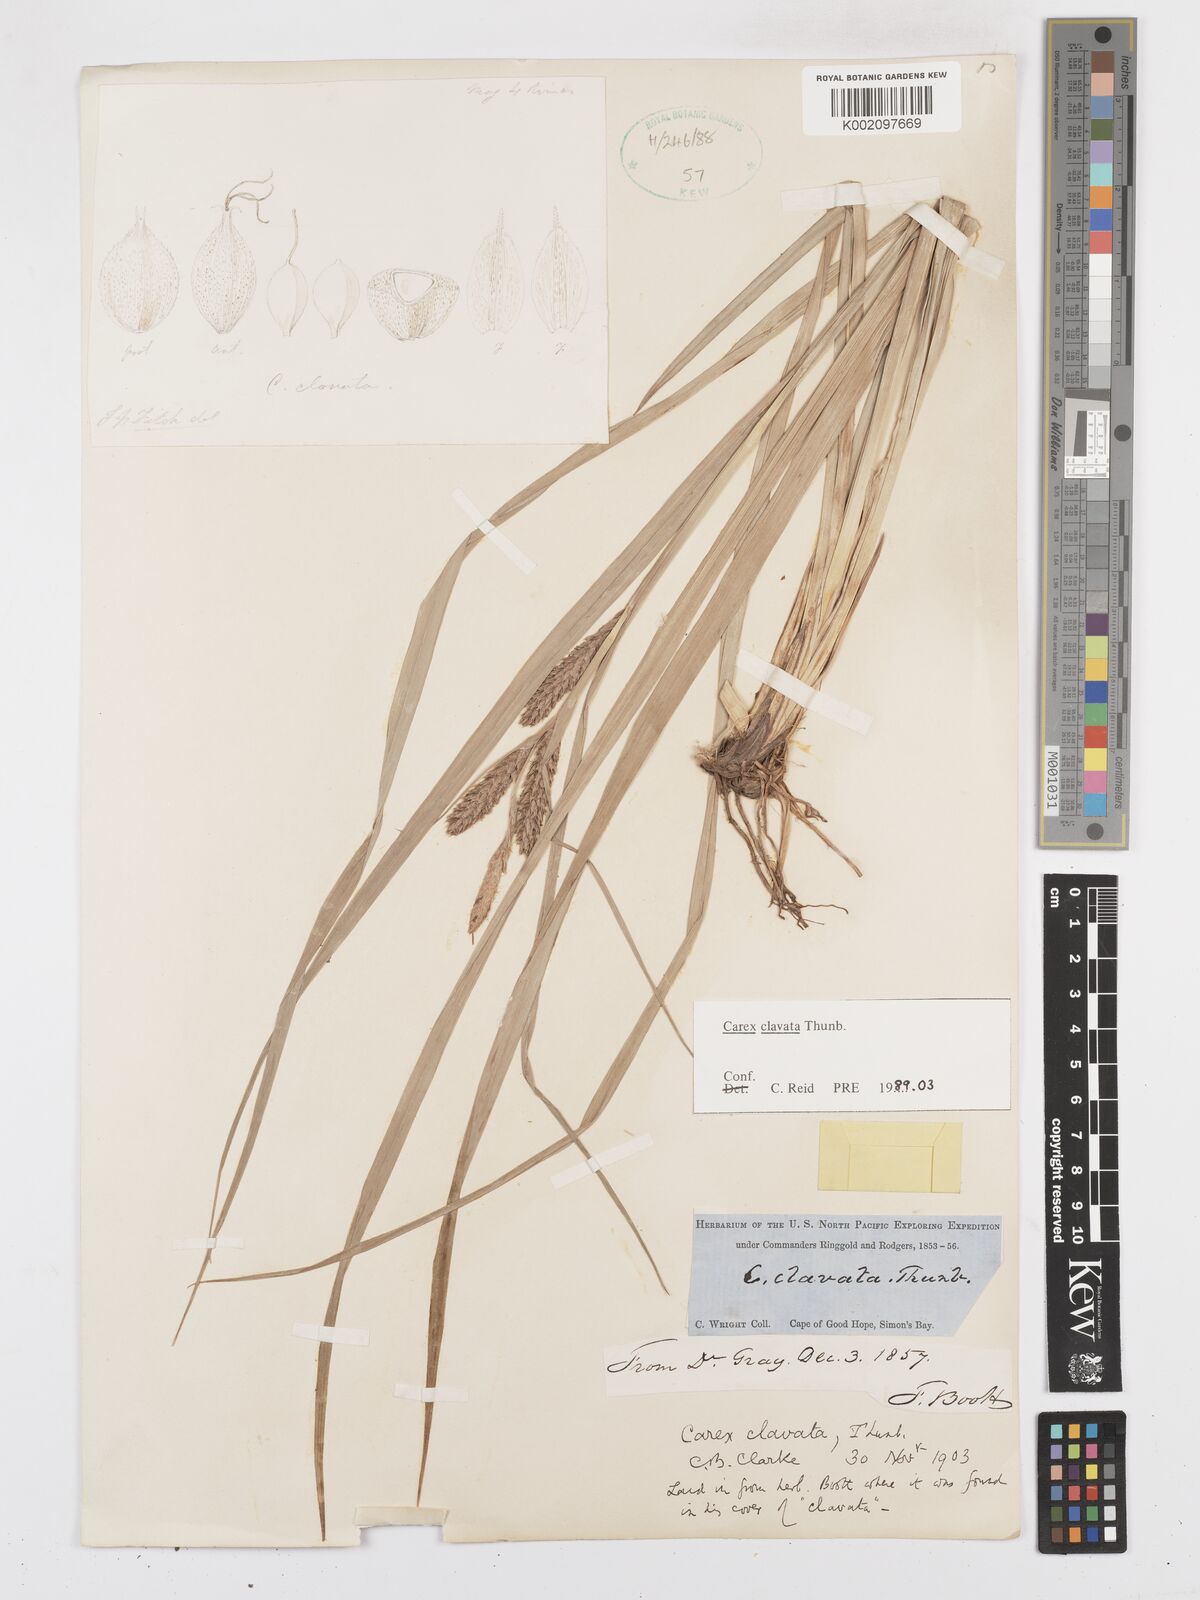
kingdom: Plantae
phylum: Tracheophyta
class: Liliopsida
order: Poales
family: Cyperaceae
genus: Carex
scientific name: Carex clavata
